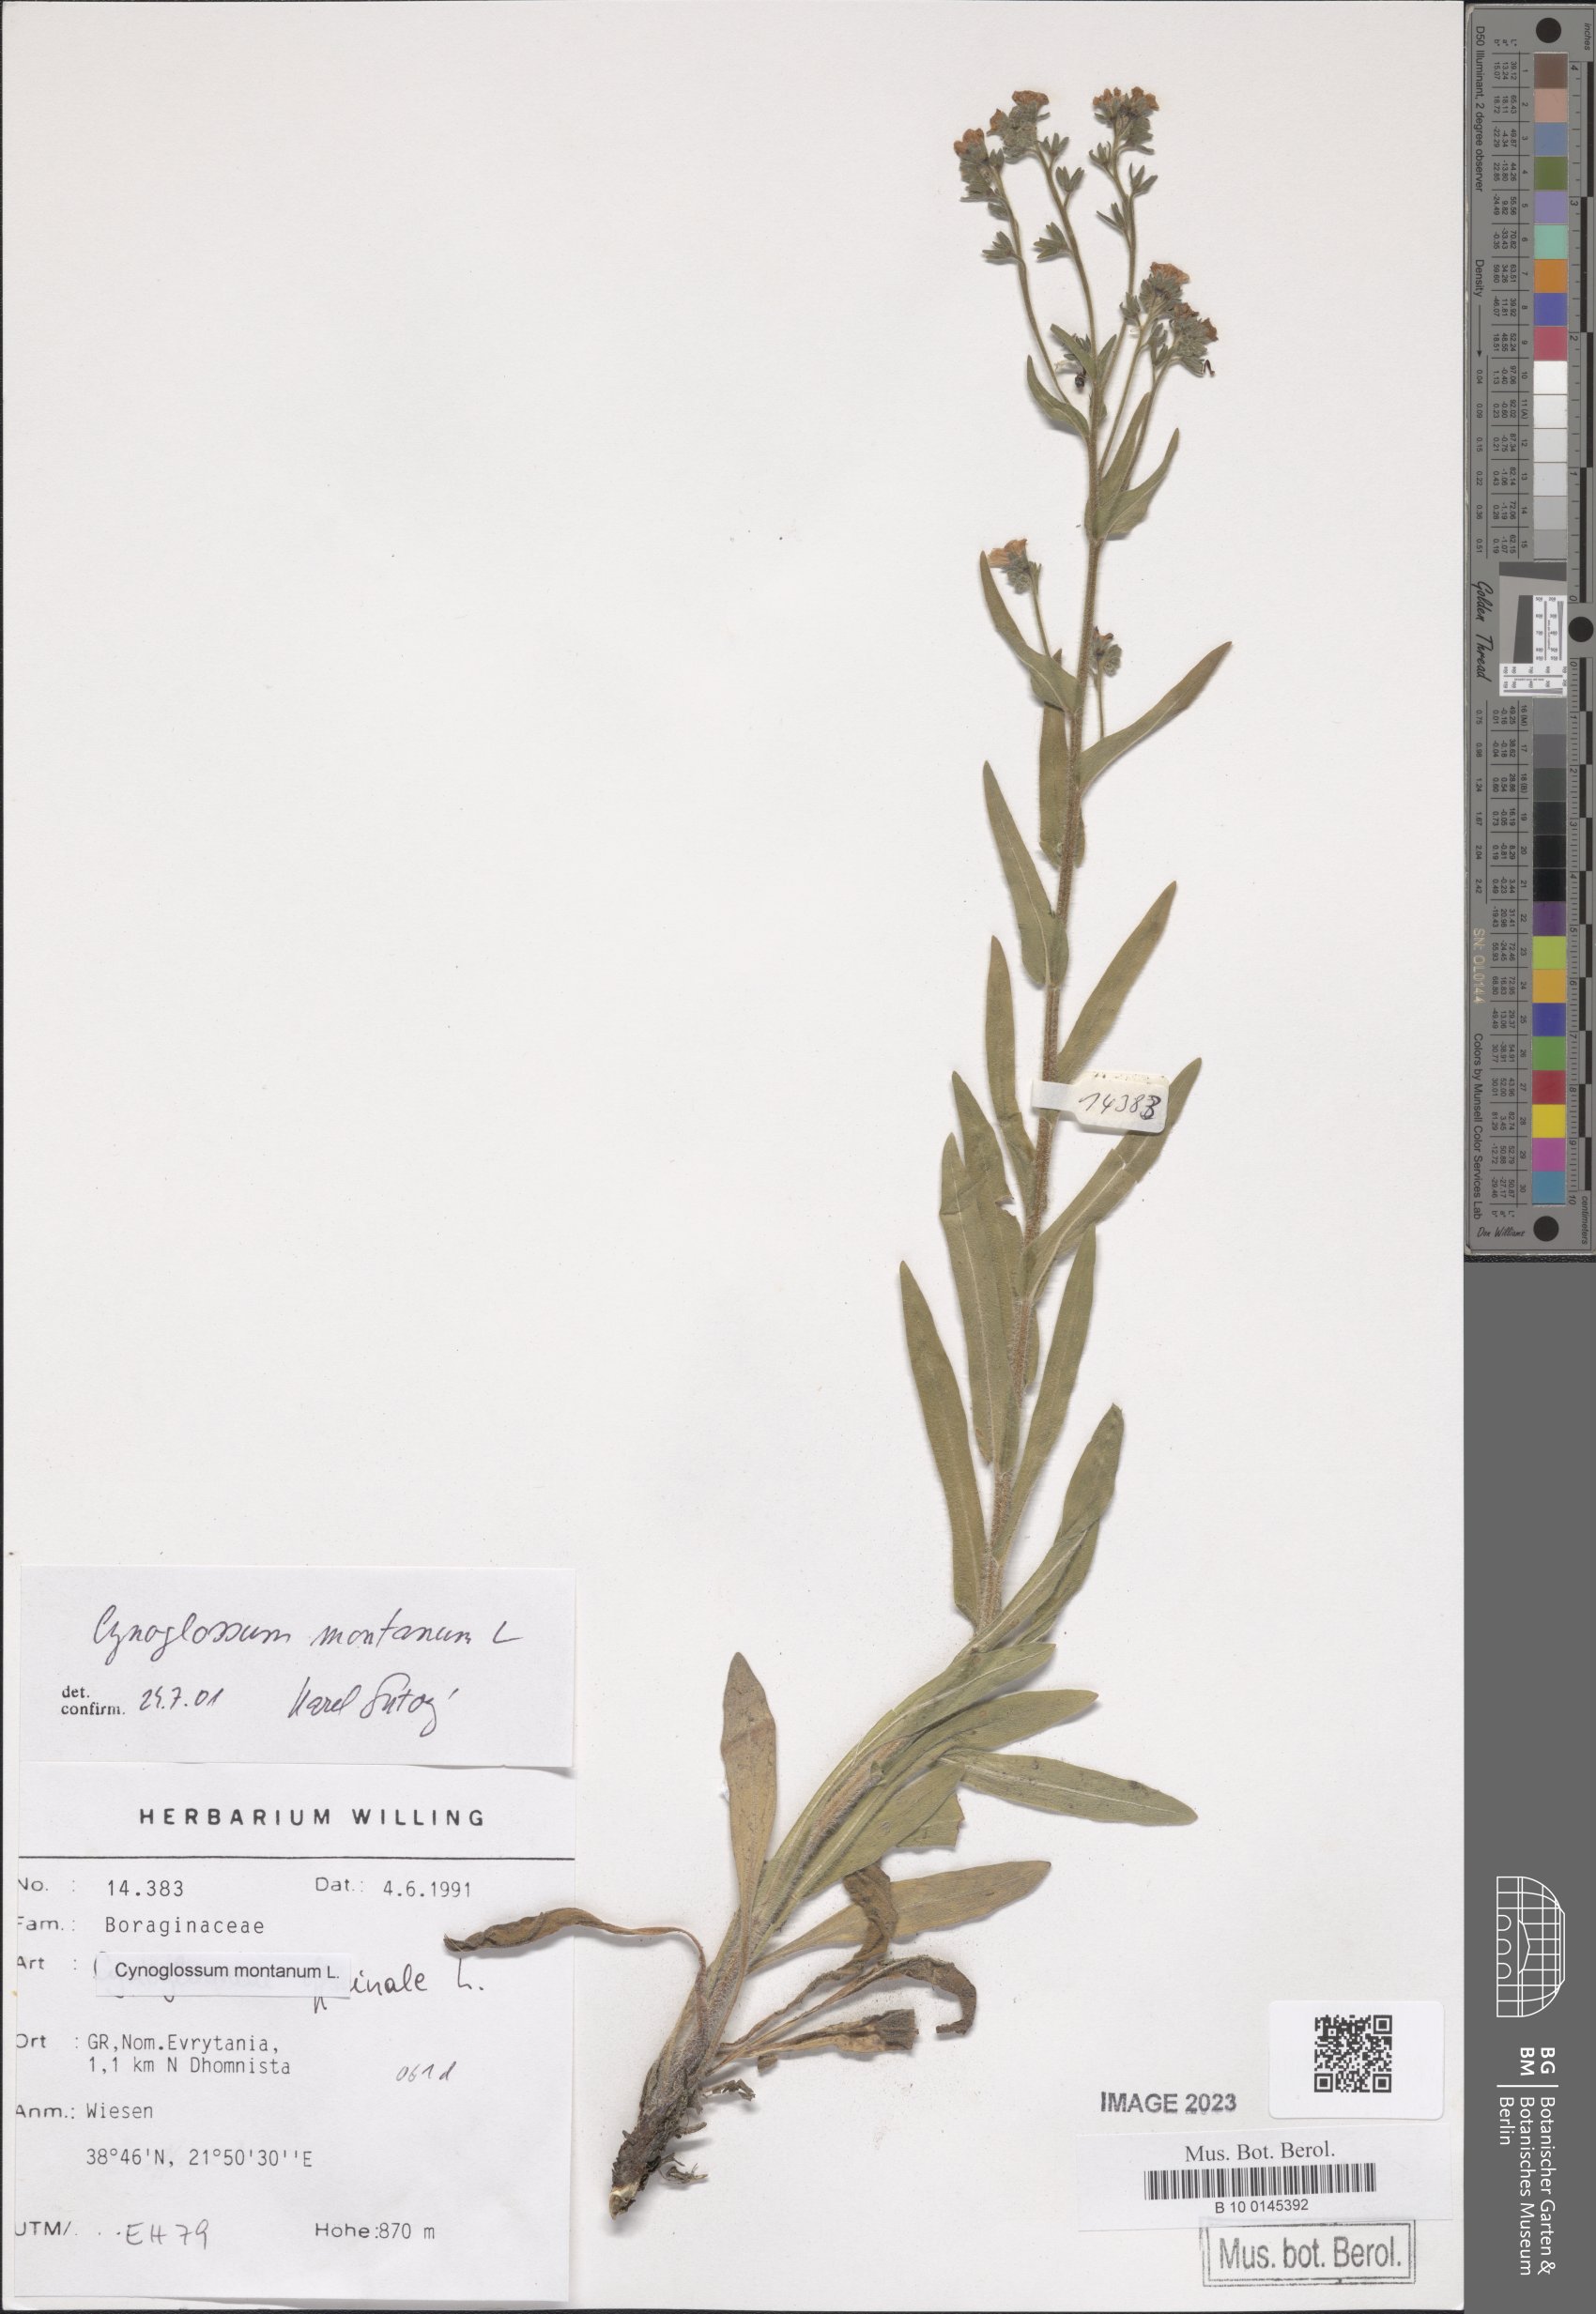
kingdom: Plantae
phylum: Tracheophyta
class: Magnoliopsida
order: Boraginales
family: Boraginaceae
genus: Cynoglossum
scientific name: Cynoglossum montanum
